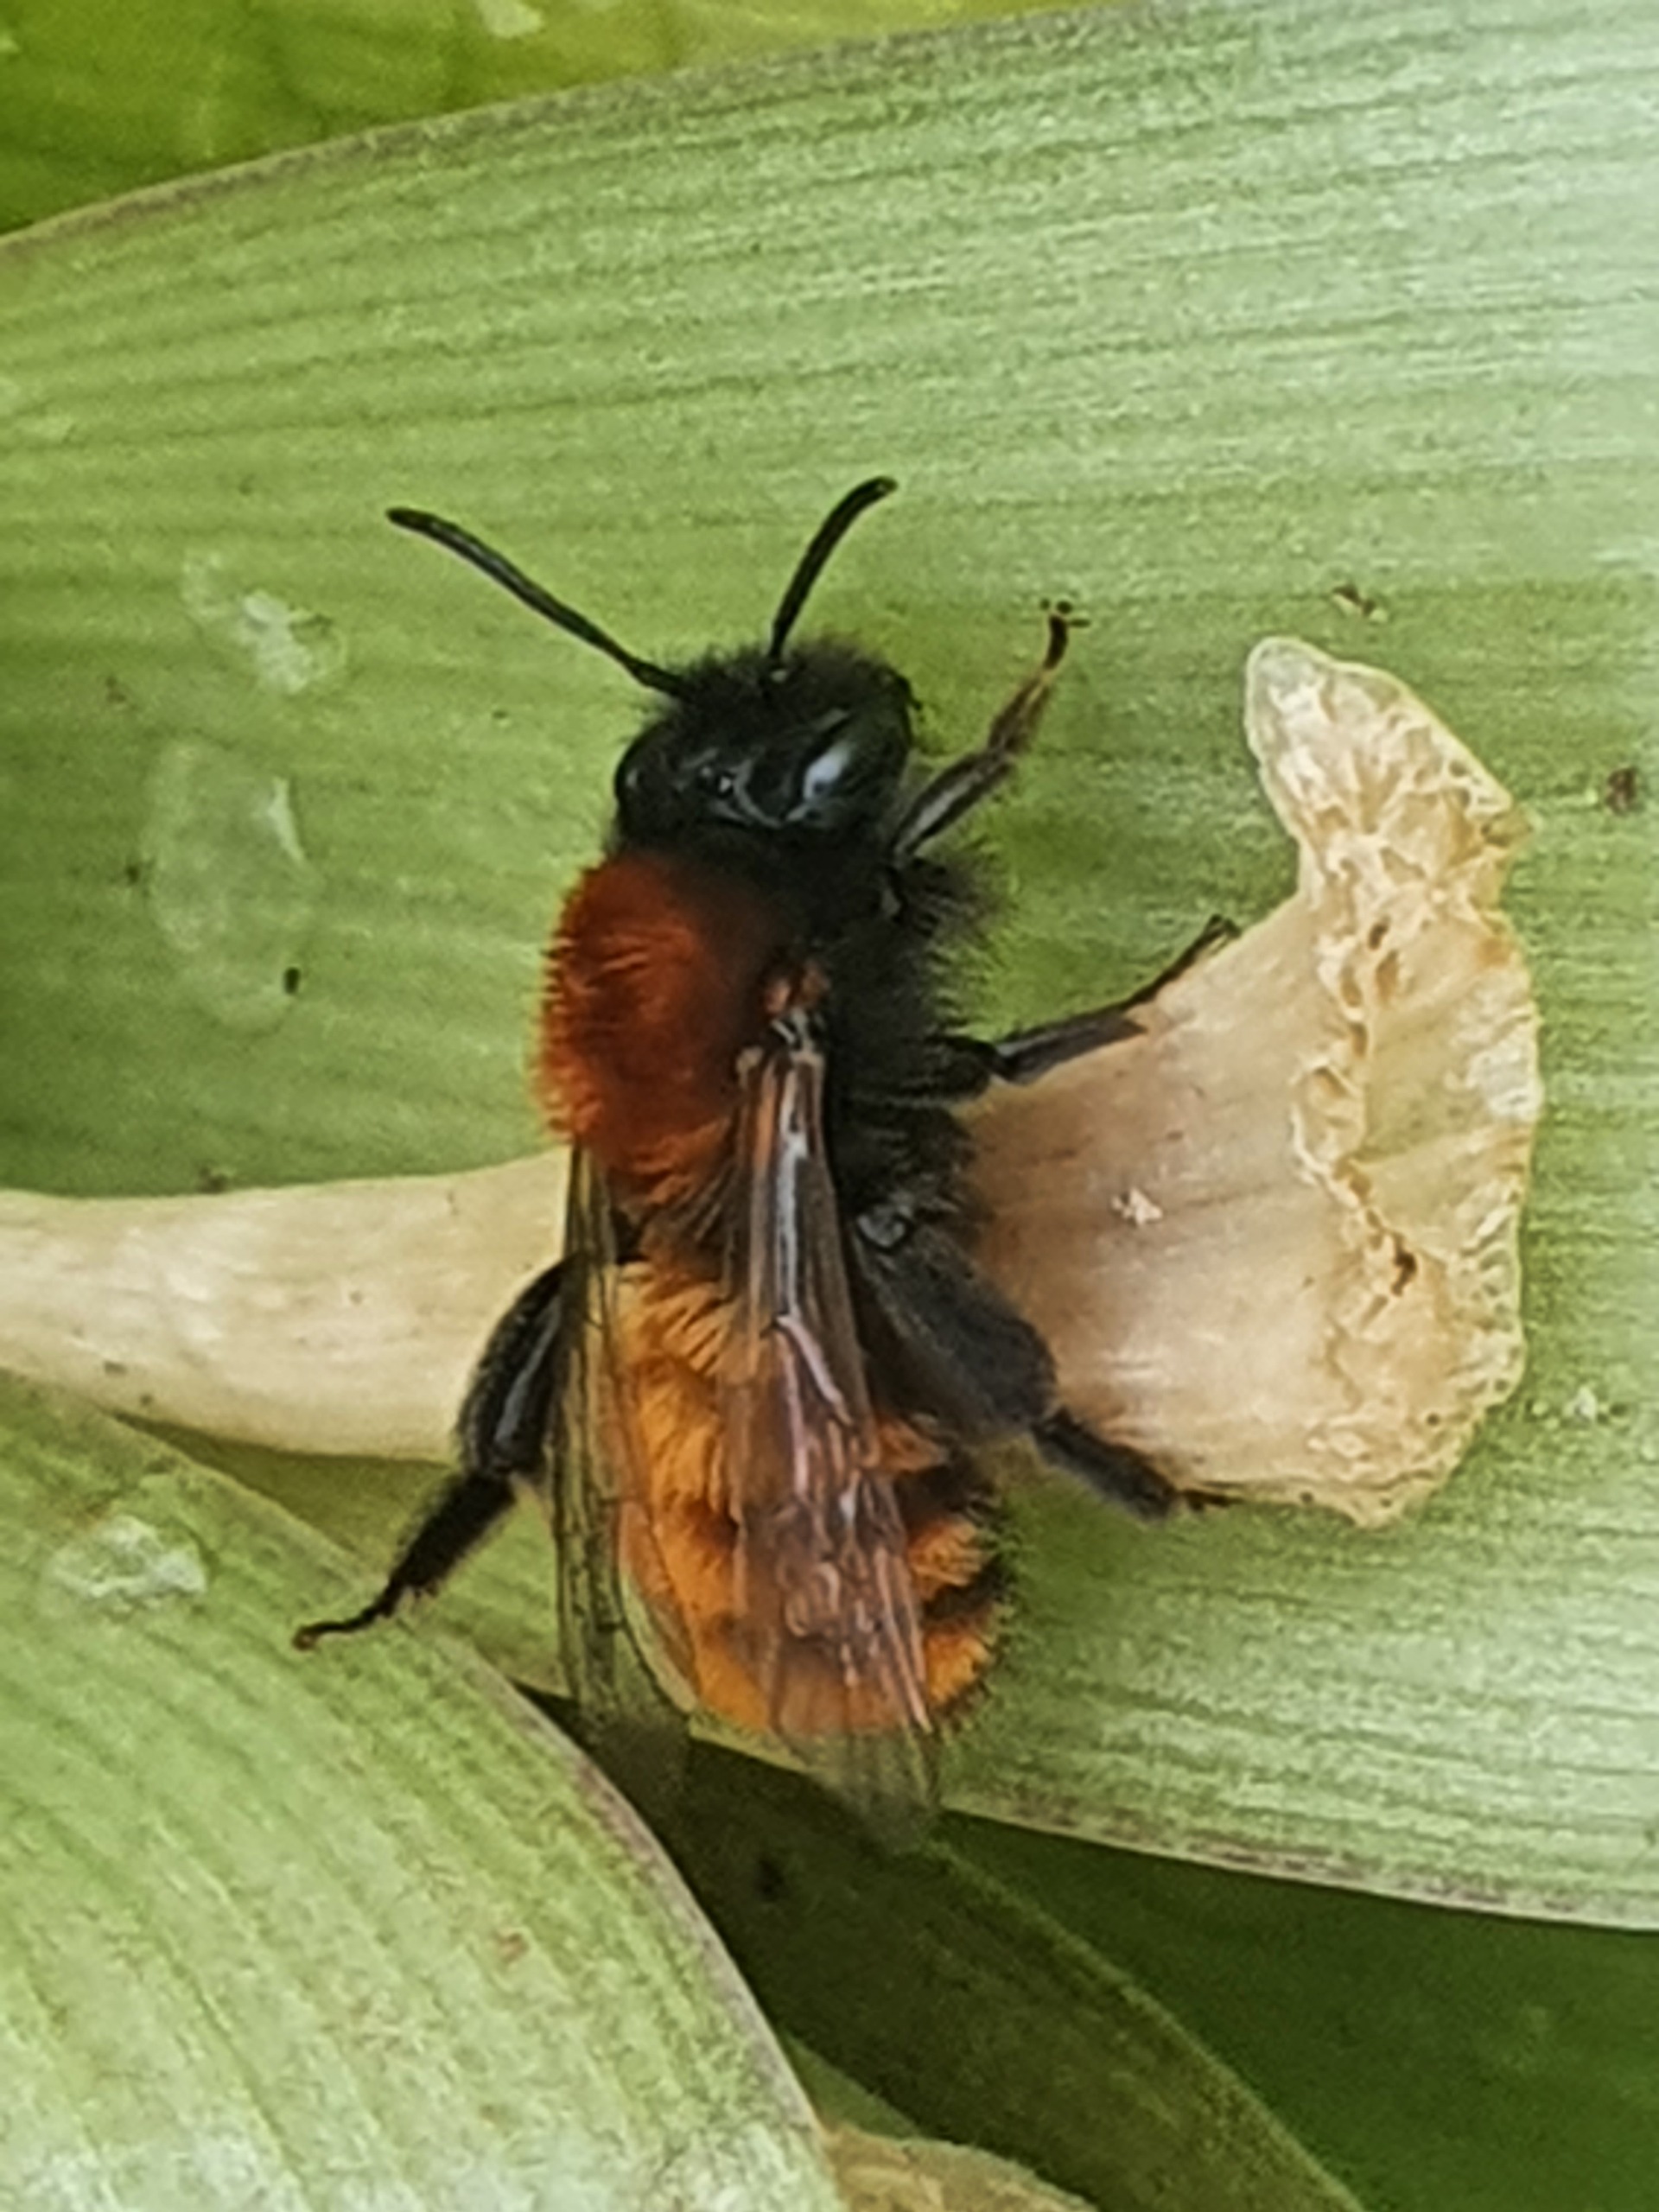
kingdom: Animalia
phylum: Arthropoda
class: Insecta
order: Hymenoptera
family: Andrenidae
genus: Andrena
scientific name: Andrena fulva
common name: Rødpelset jordbi
